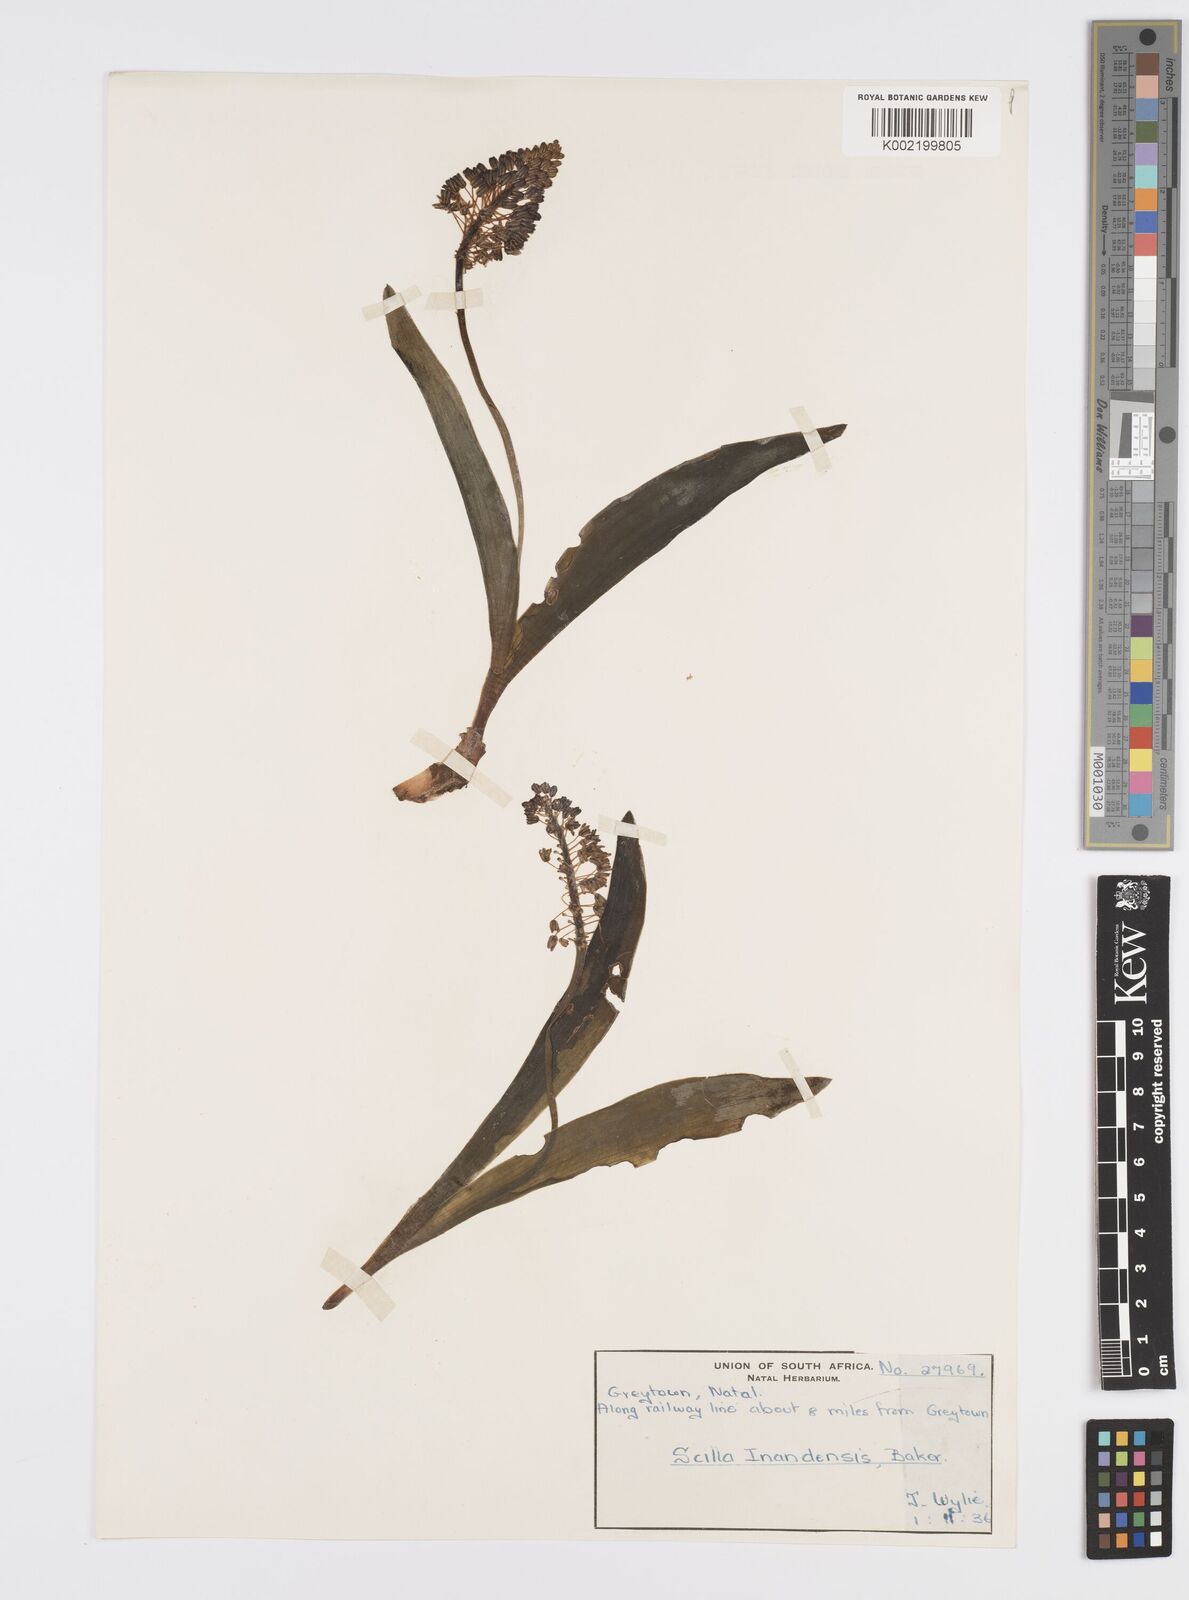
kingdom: Plantae
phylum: Tracheophyta
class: Liliopsida
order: Asparagales
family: Asparagaceae
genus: Ledebouria
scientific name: Ledebouria cooperi
